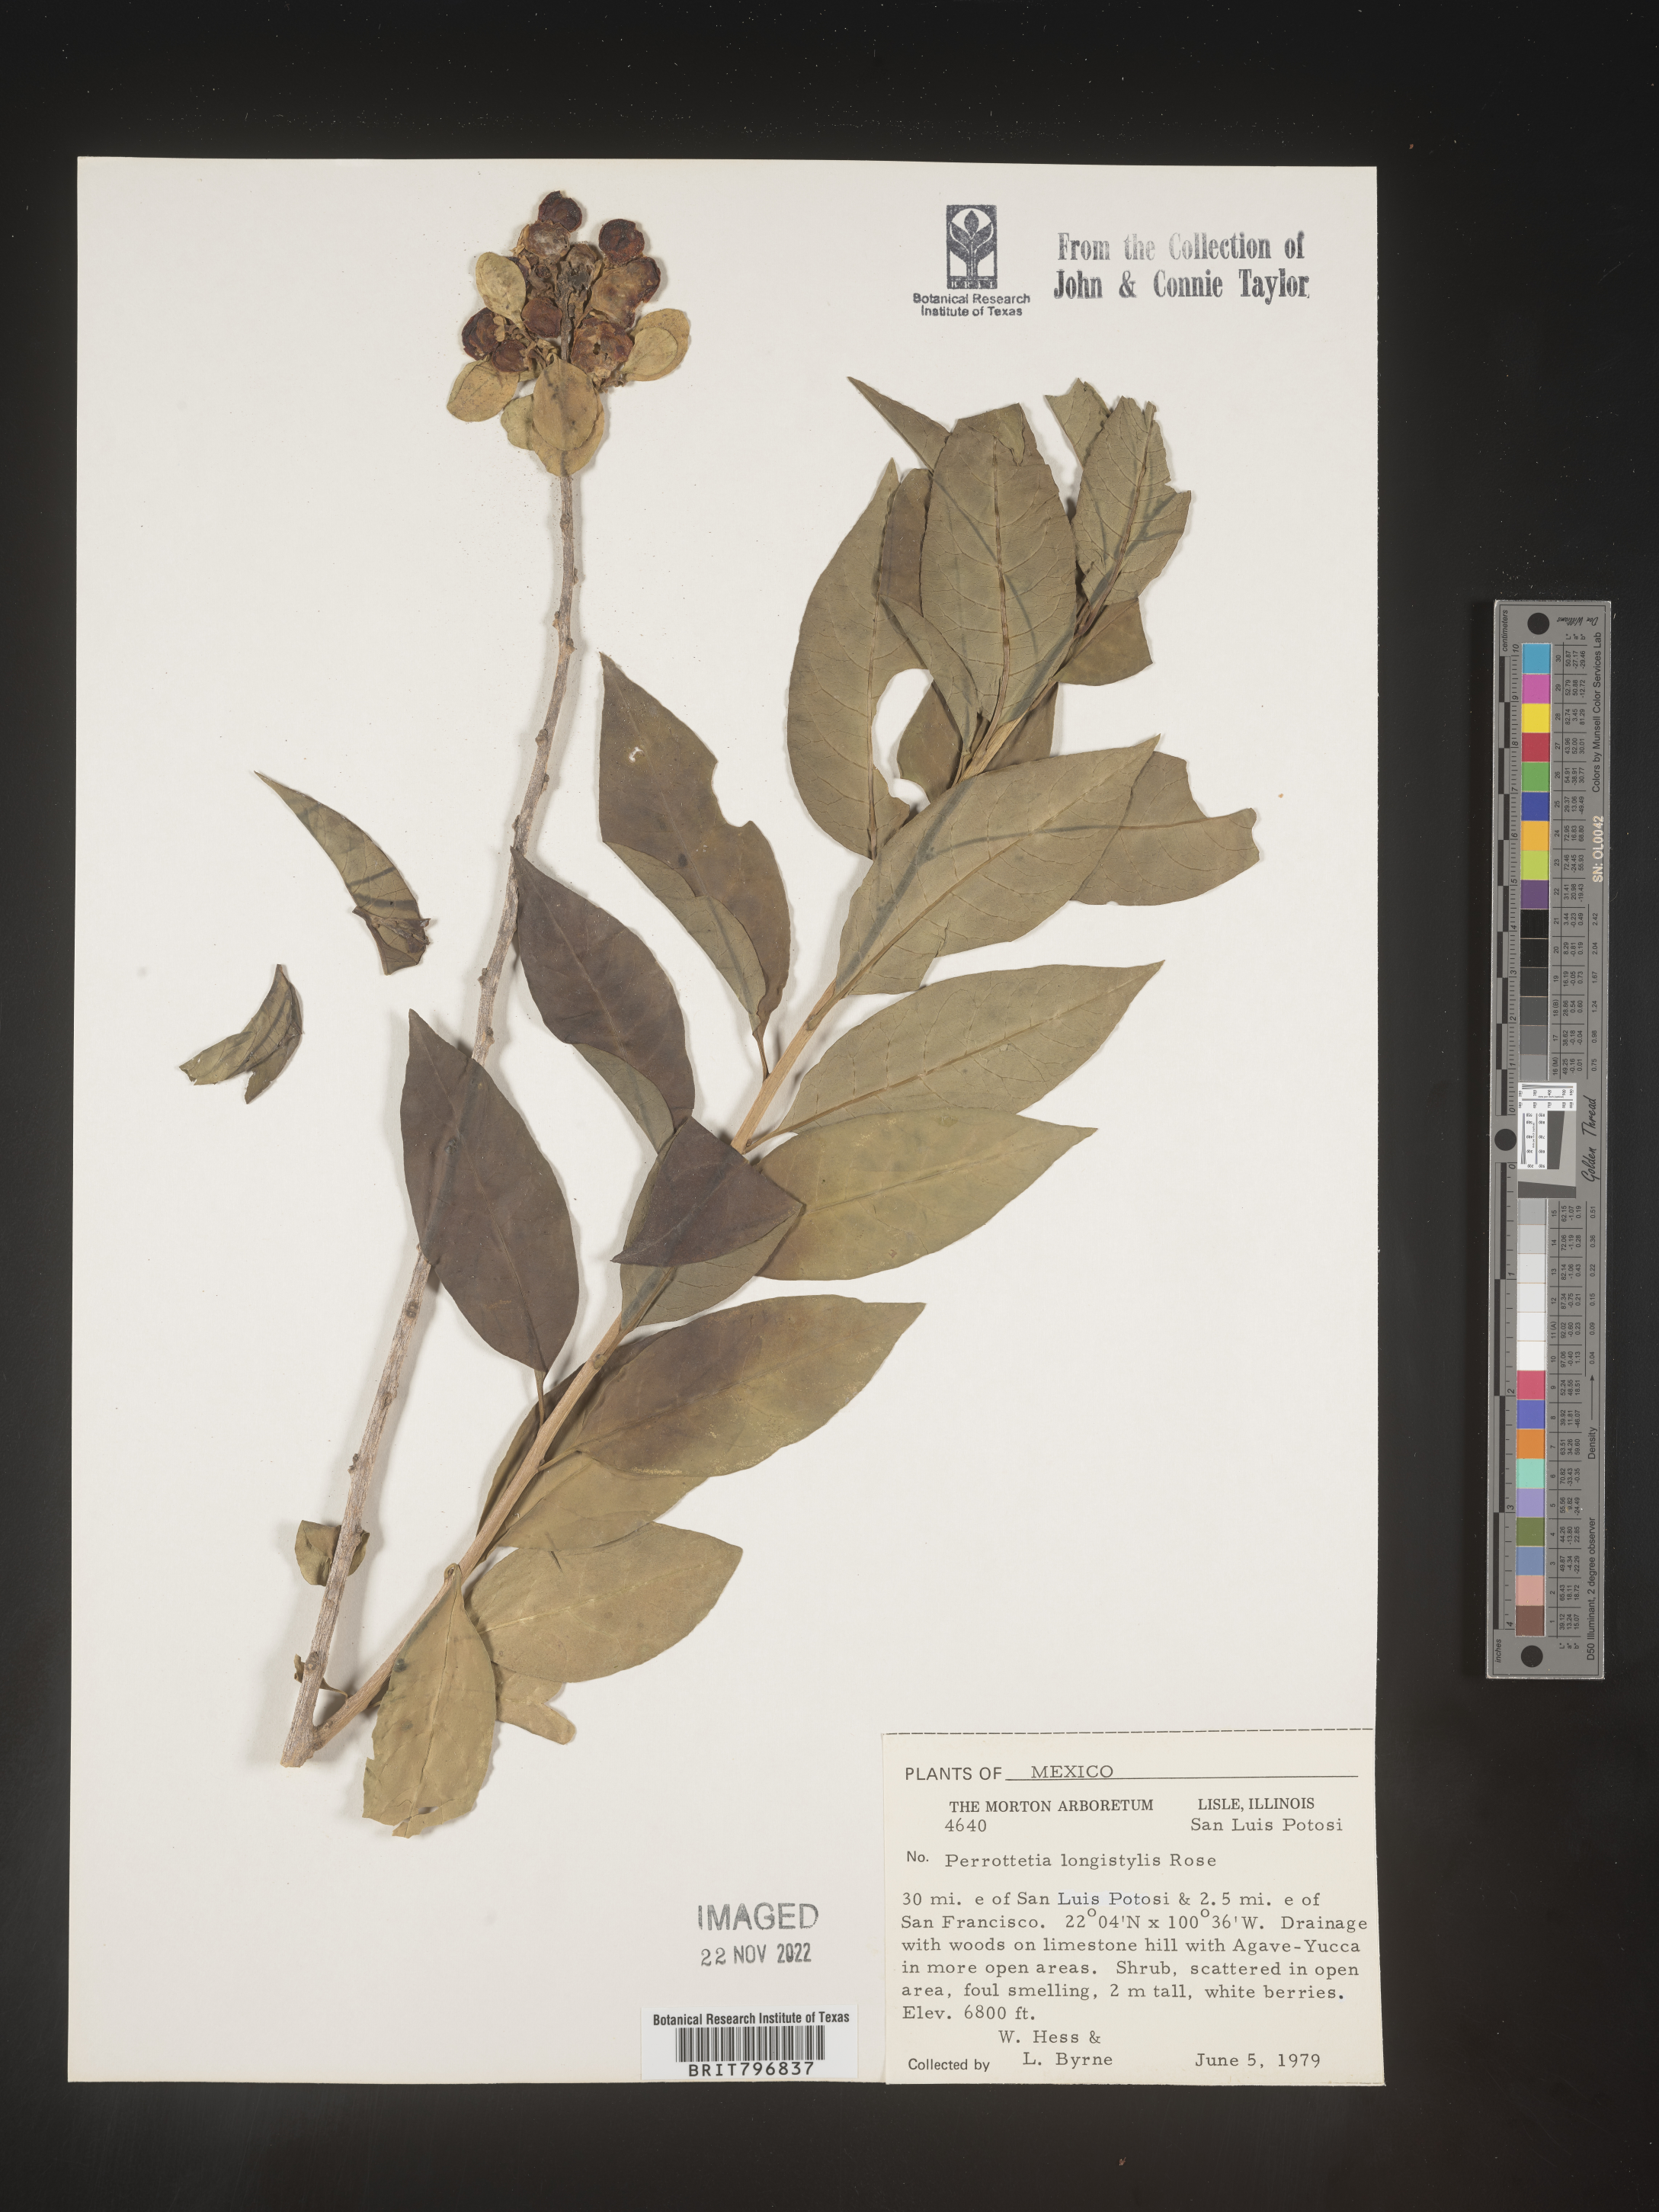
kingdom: Plantae
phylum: Tracheophyta
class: Magnoliopsida
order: Huerteales
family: Dipentodontaceae
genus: Perrottetia
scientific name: Perrottetia
